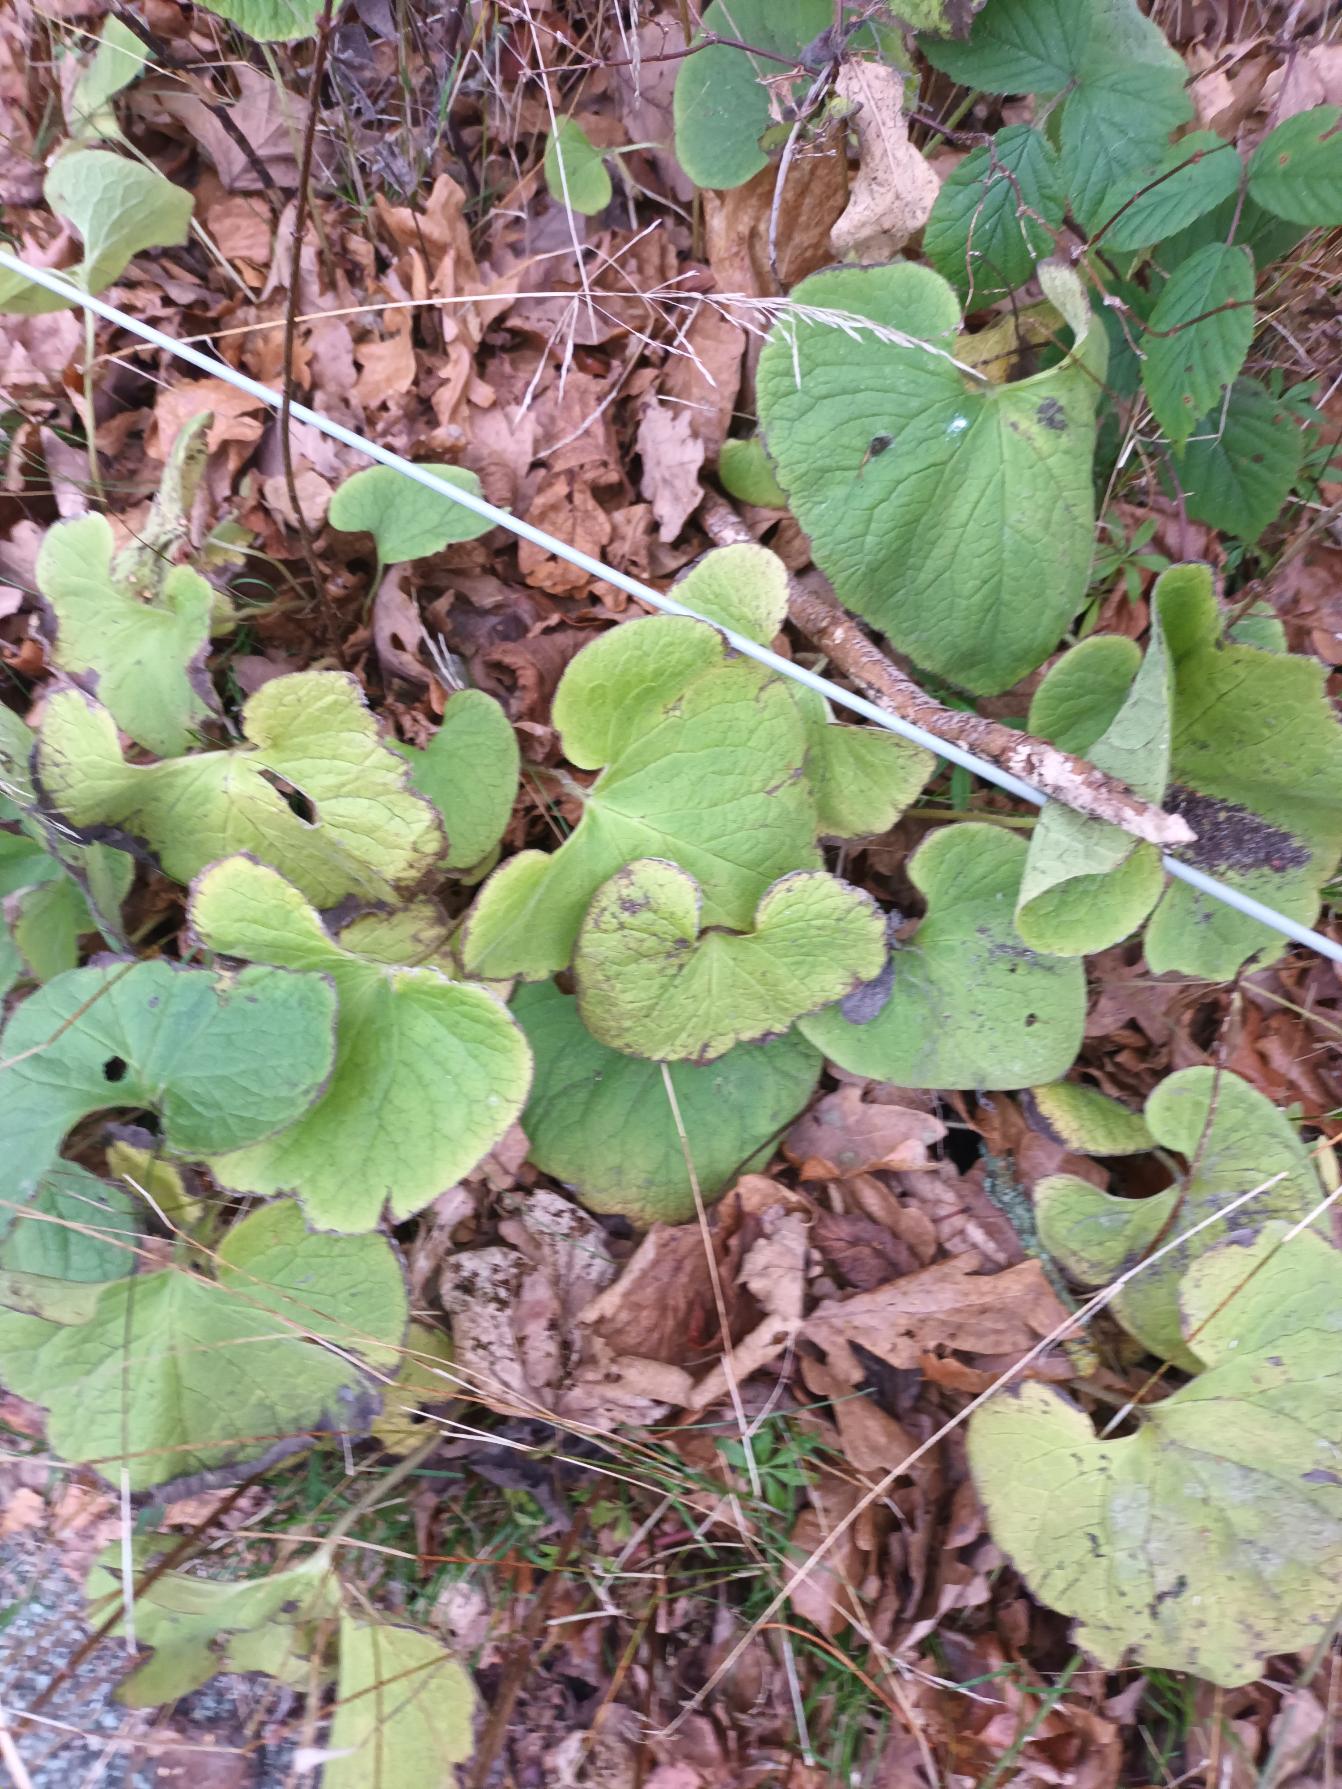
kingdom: Plantae
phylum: Tracheophyta
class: Magnoliopsida
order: Boraginales
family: Boraginaceae
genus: Brunnera
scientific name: Brunnera macrophylla
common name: Kærmindesøster
